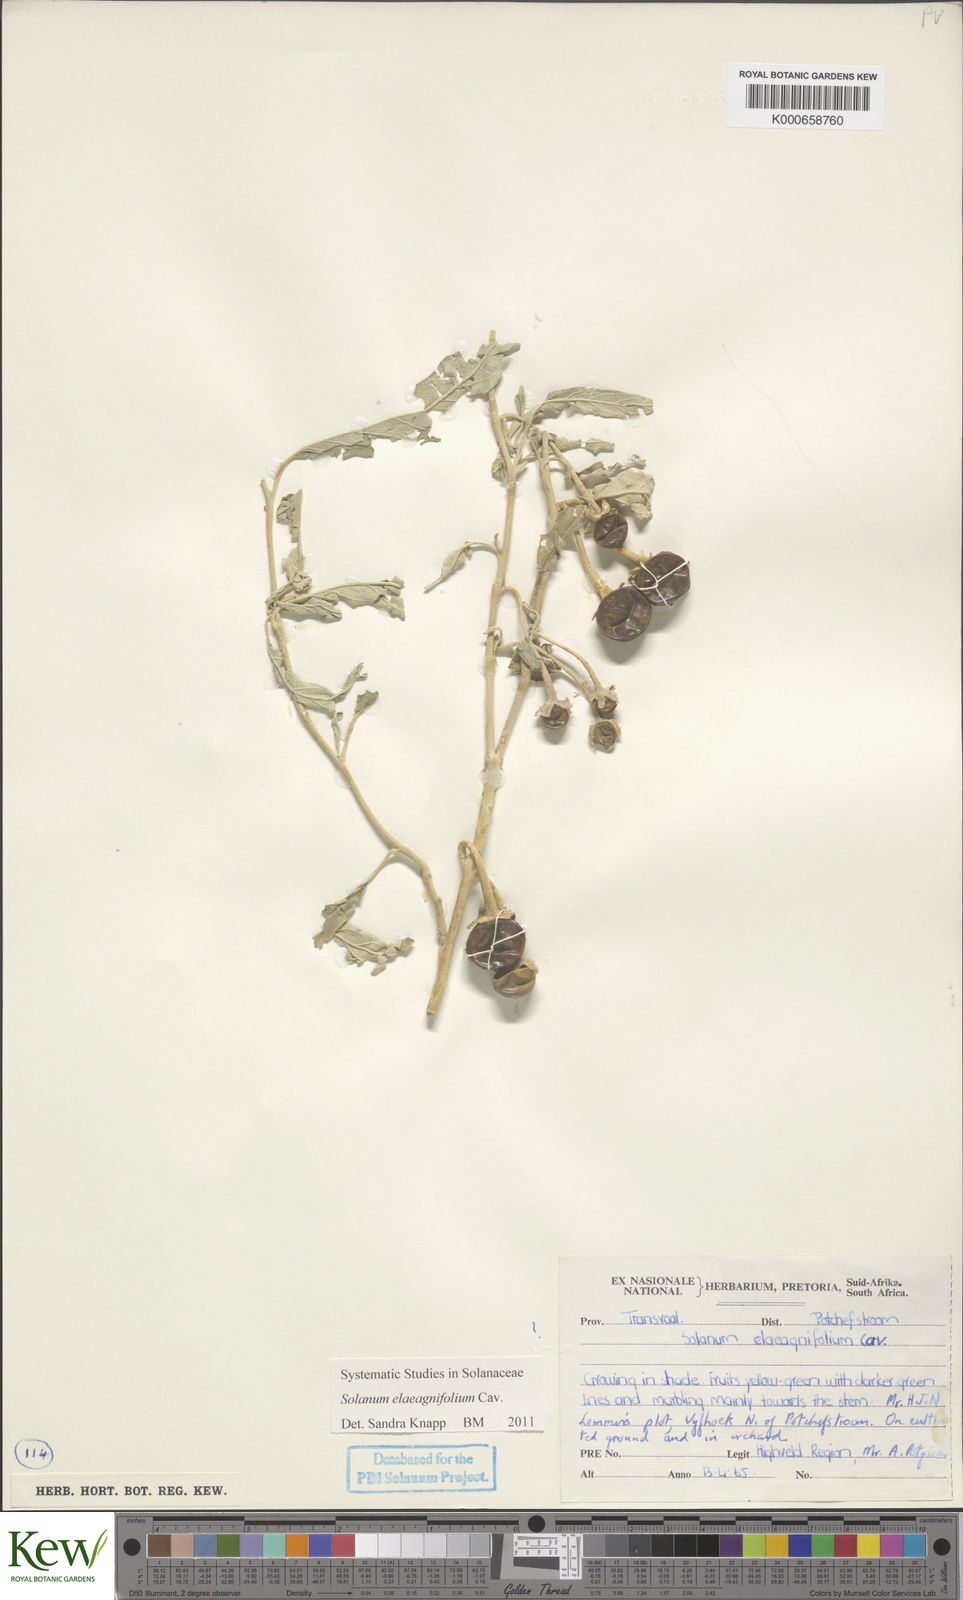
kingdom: Plantae
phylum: Tracheophyta
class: Magnoliopsida
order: Solanales
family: Solanaceae
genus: Solanum
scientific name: Solanum elaeagnifolium
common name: Silverleaf nightshade
